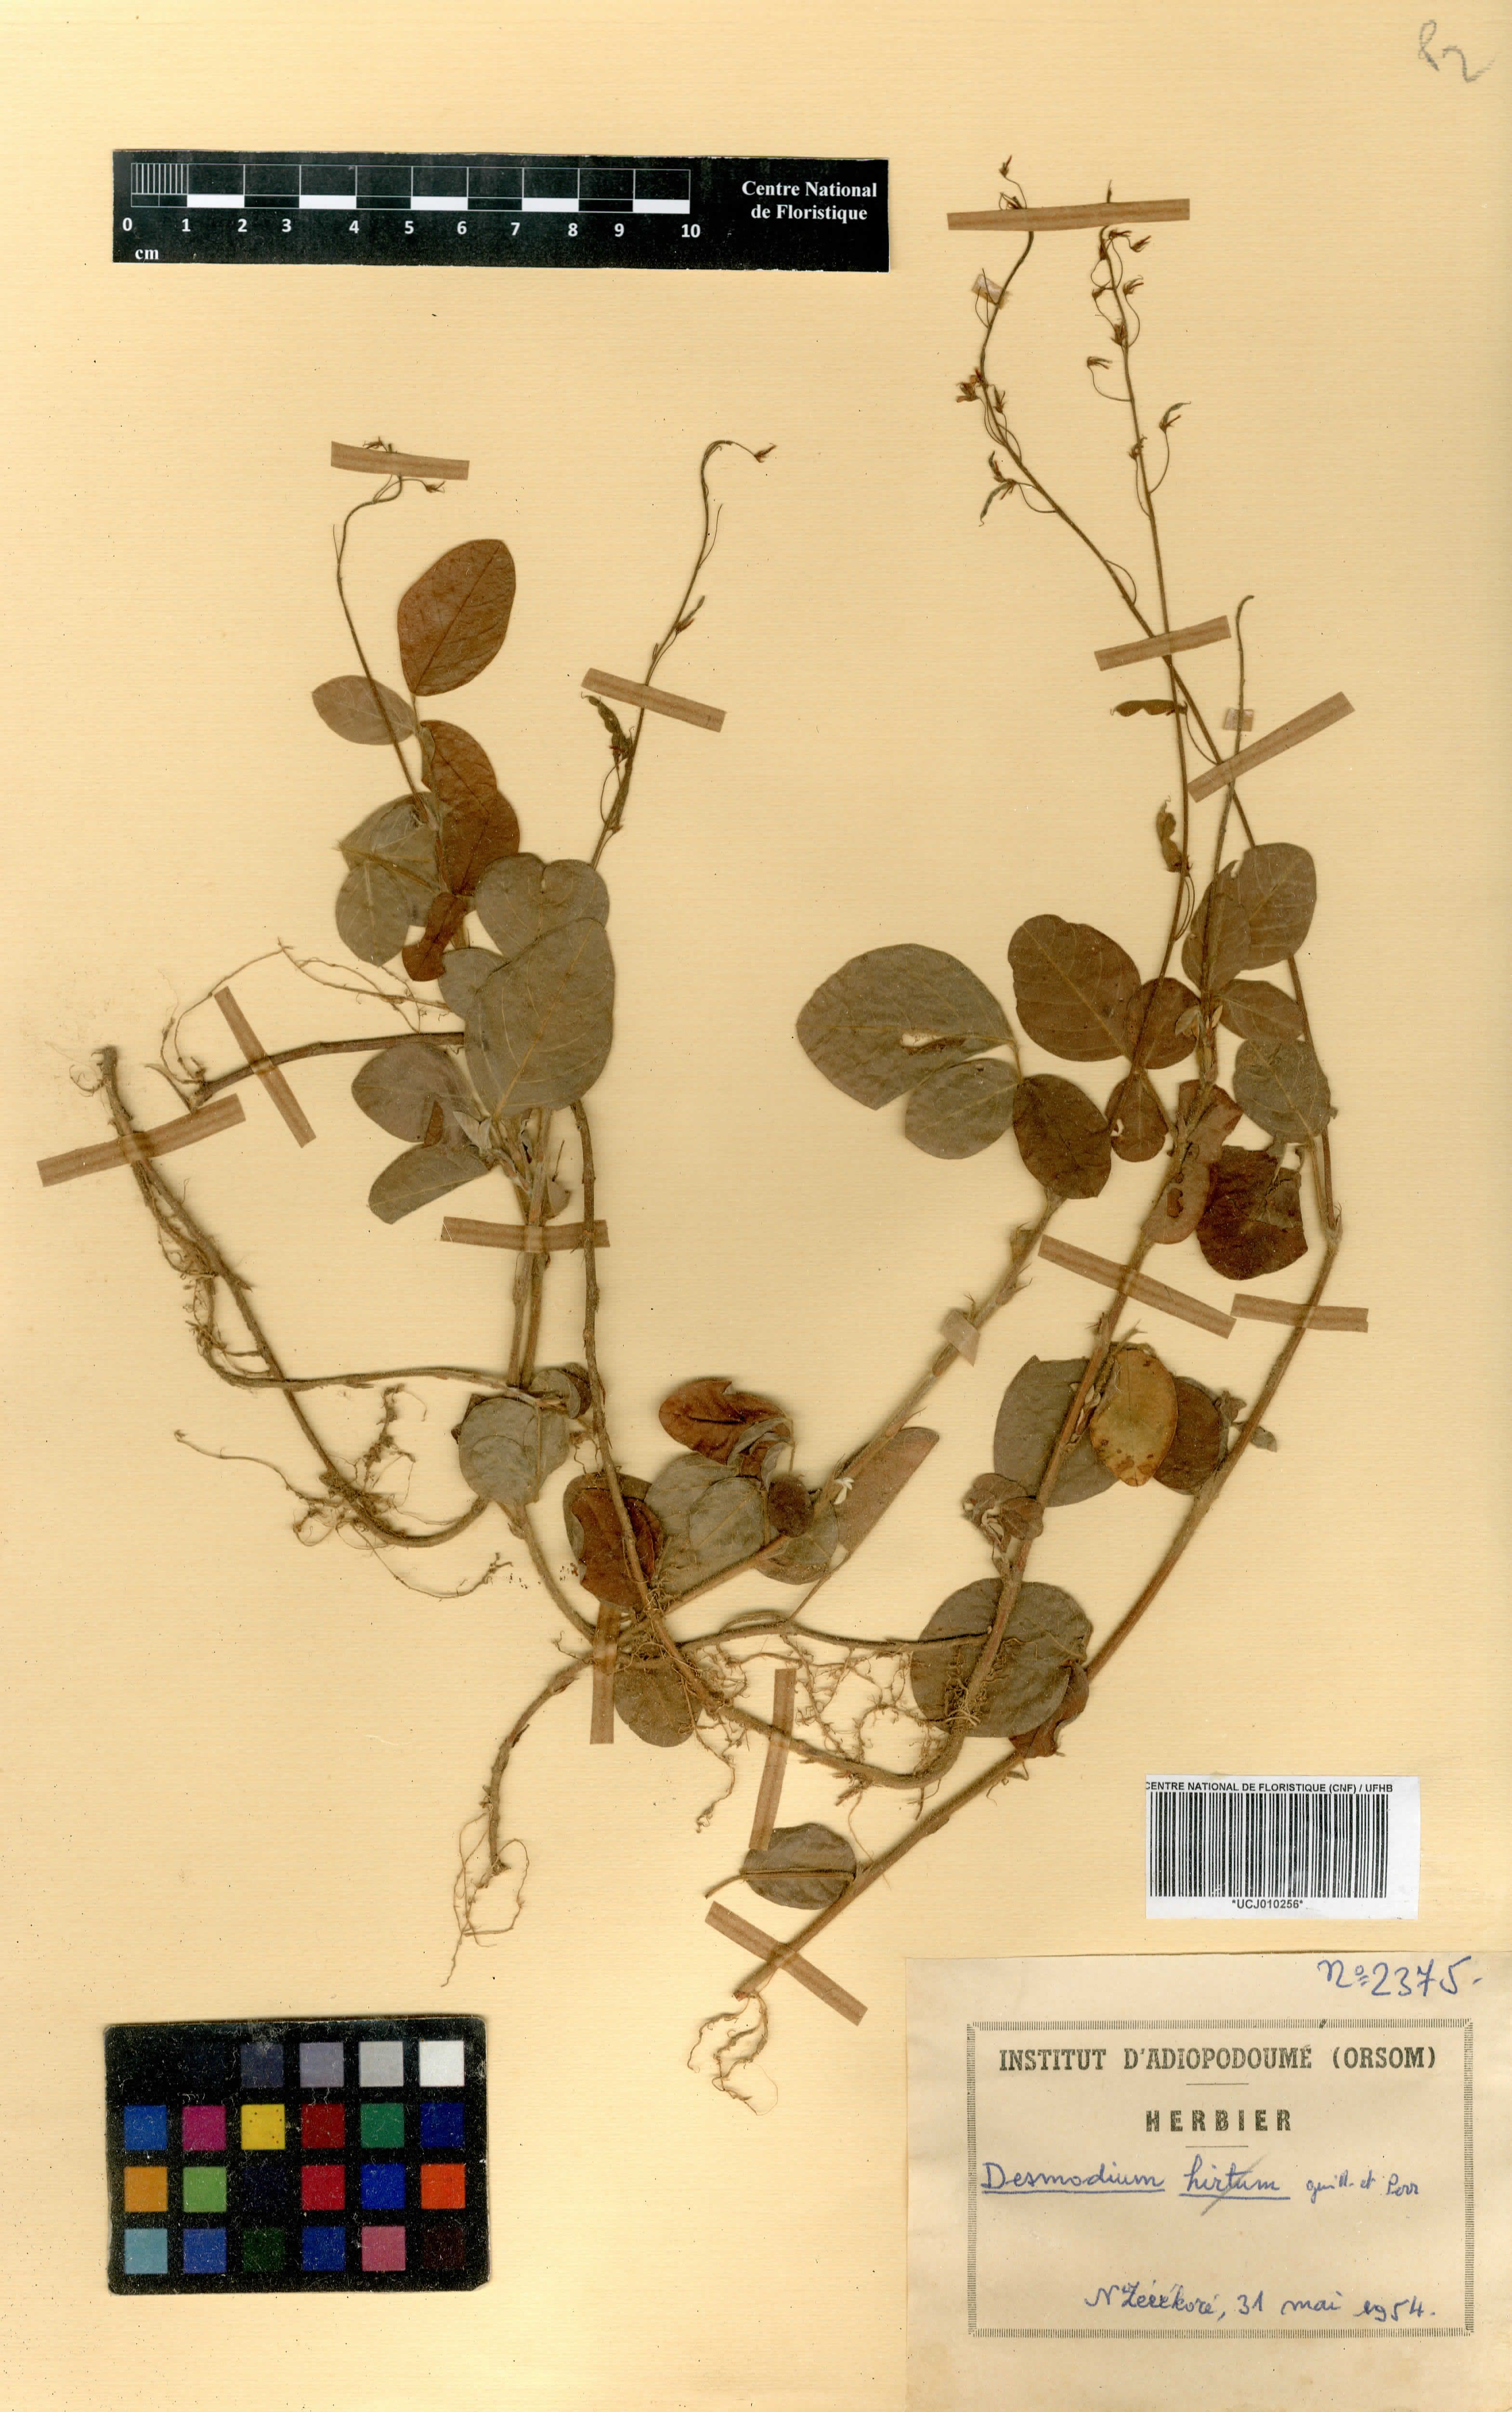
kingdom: Plantae
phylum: Tracheophyta
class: Magnoliopsida
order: Fabales
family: Fabaceae
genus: Grona
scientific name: Grona adscendens
